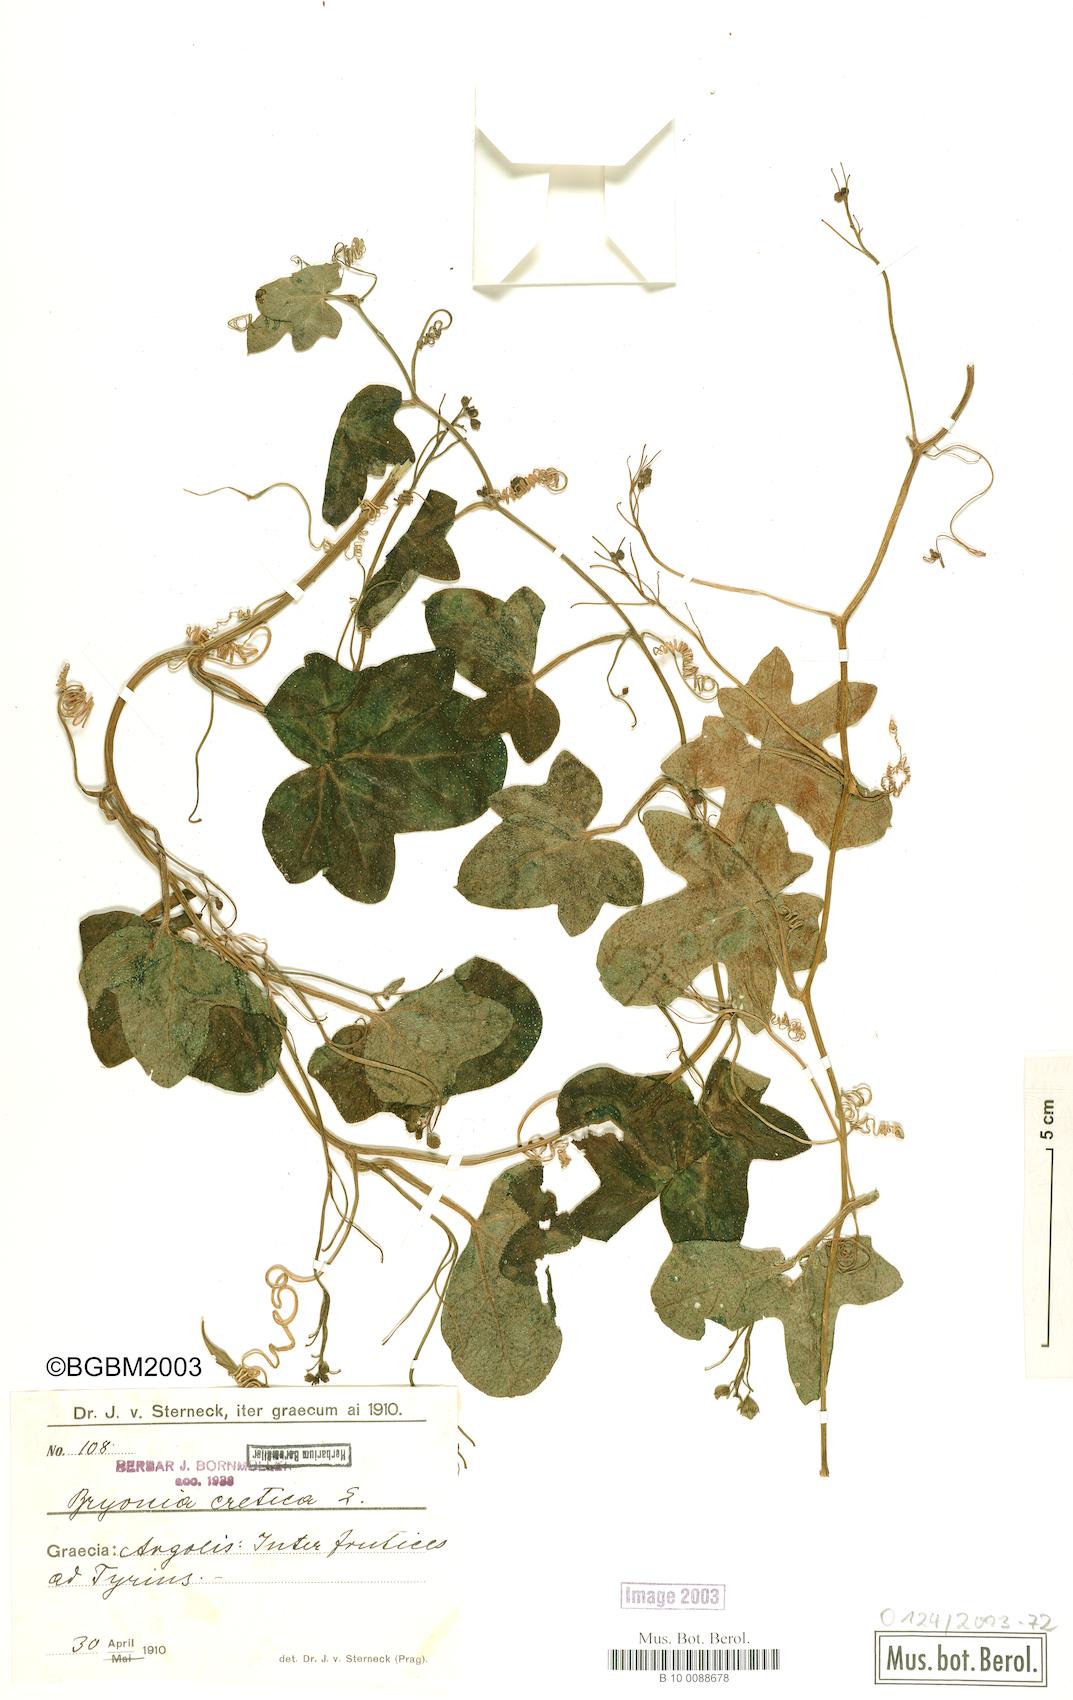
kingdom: Plantae
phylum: Tracheophyta
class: Magnoliopsida
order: Cucurbitales
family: Cucurbitaceae
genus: Bryonia
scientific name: Bryonia cretica
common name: Cretan bryony
